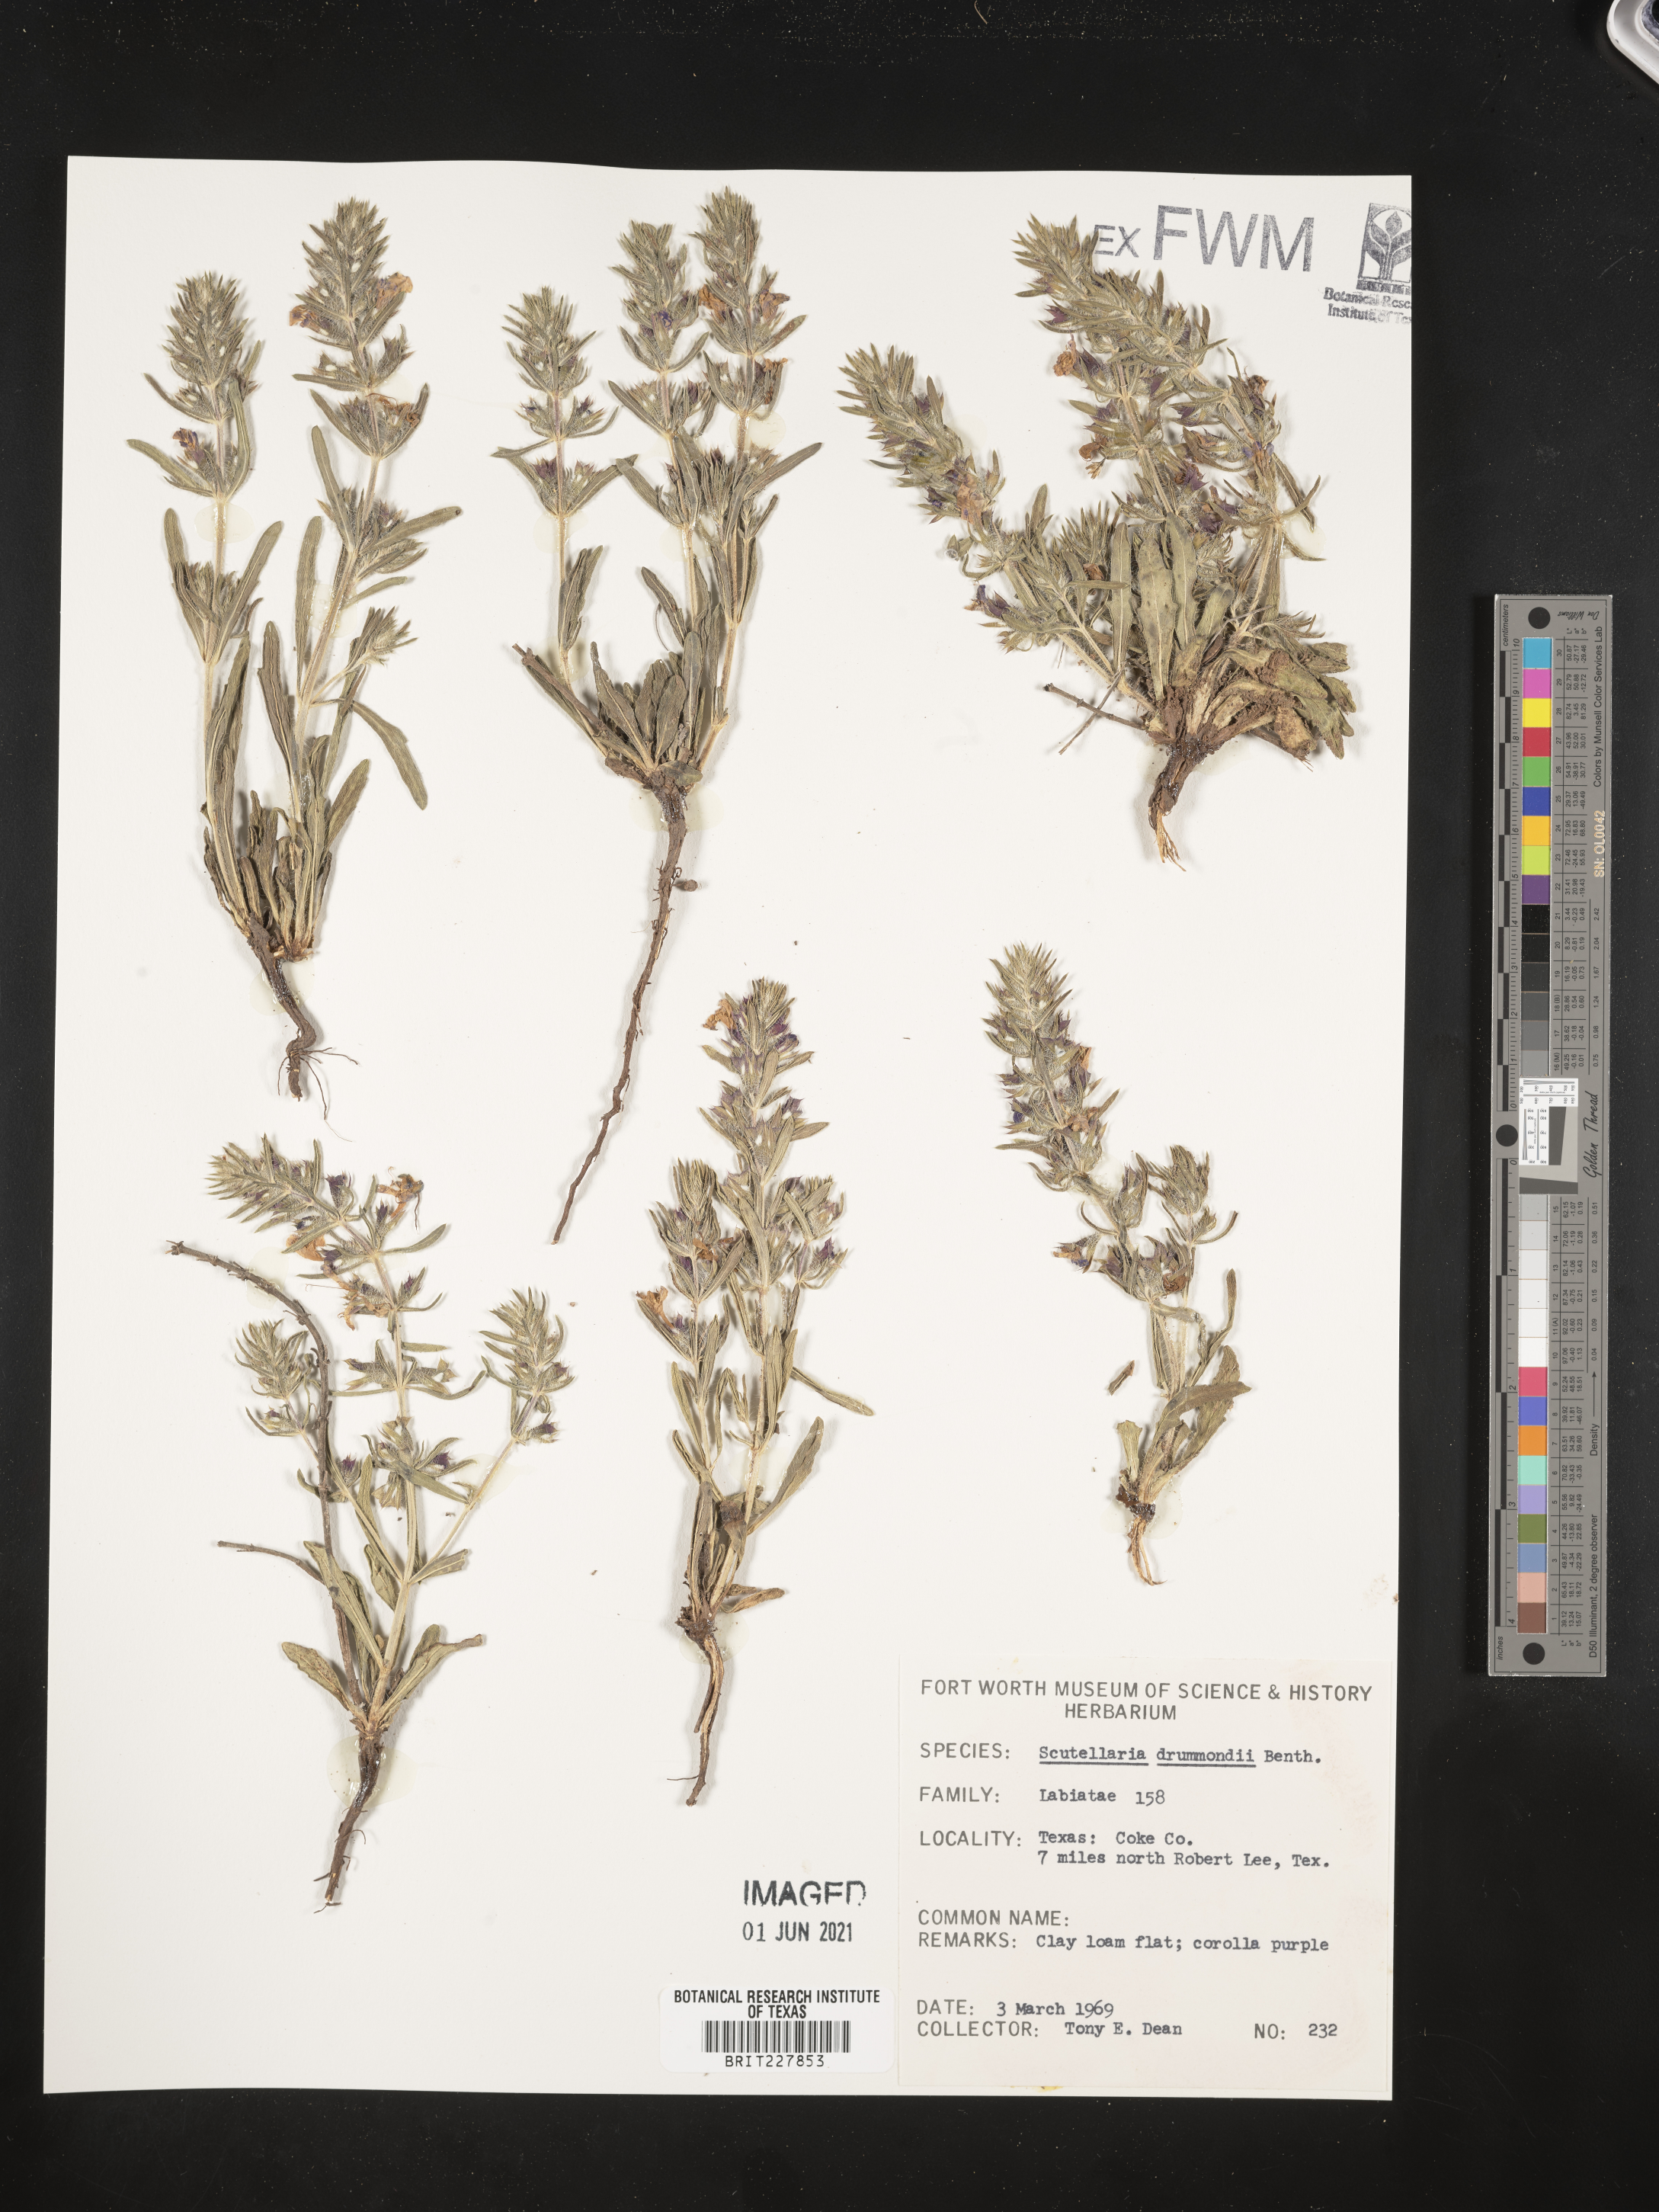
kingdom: Plantae
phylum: Tracheophyta
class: Magnoliopsida
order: Lamiales
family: Lamiaceae
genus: Scutellaria
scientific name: Scutellaria drummondii
